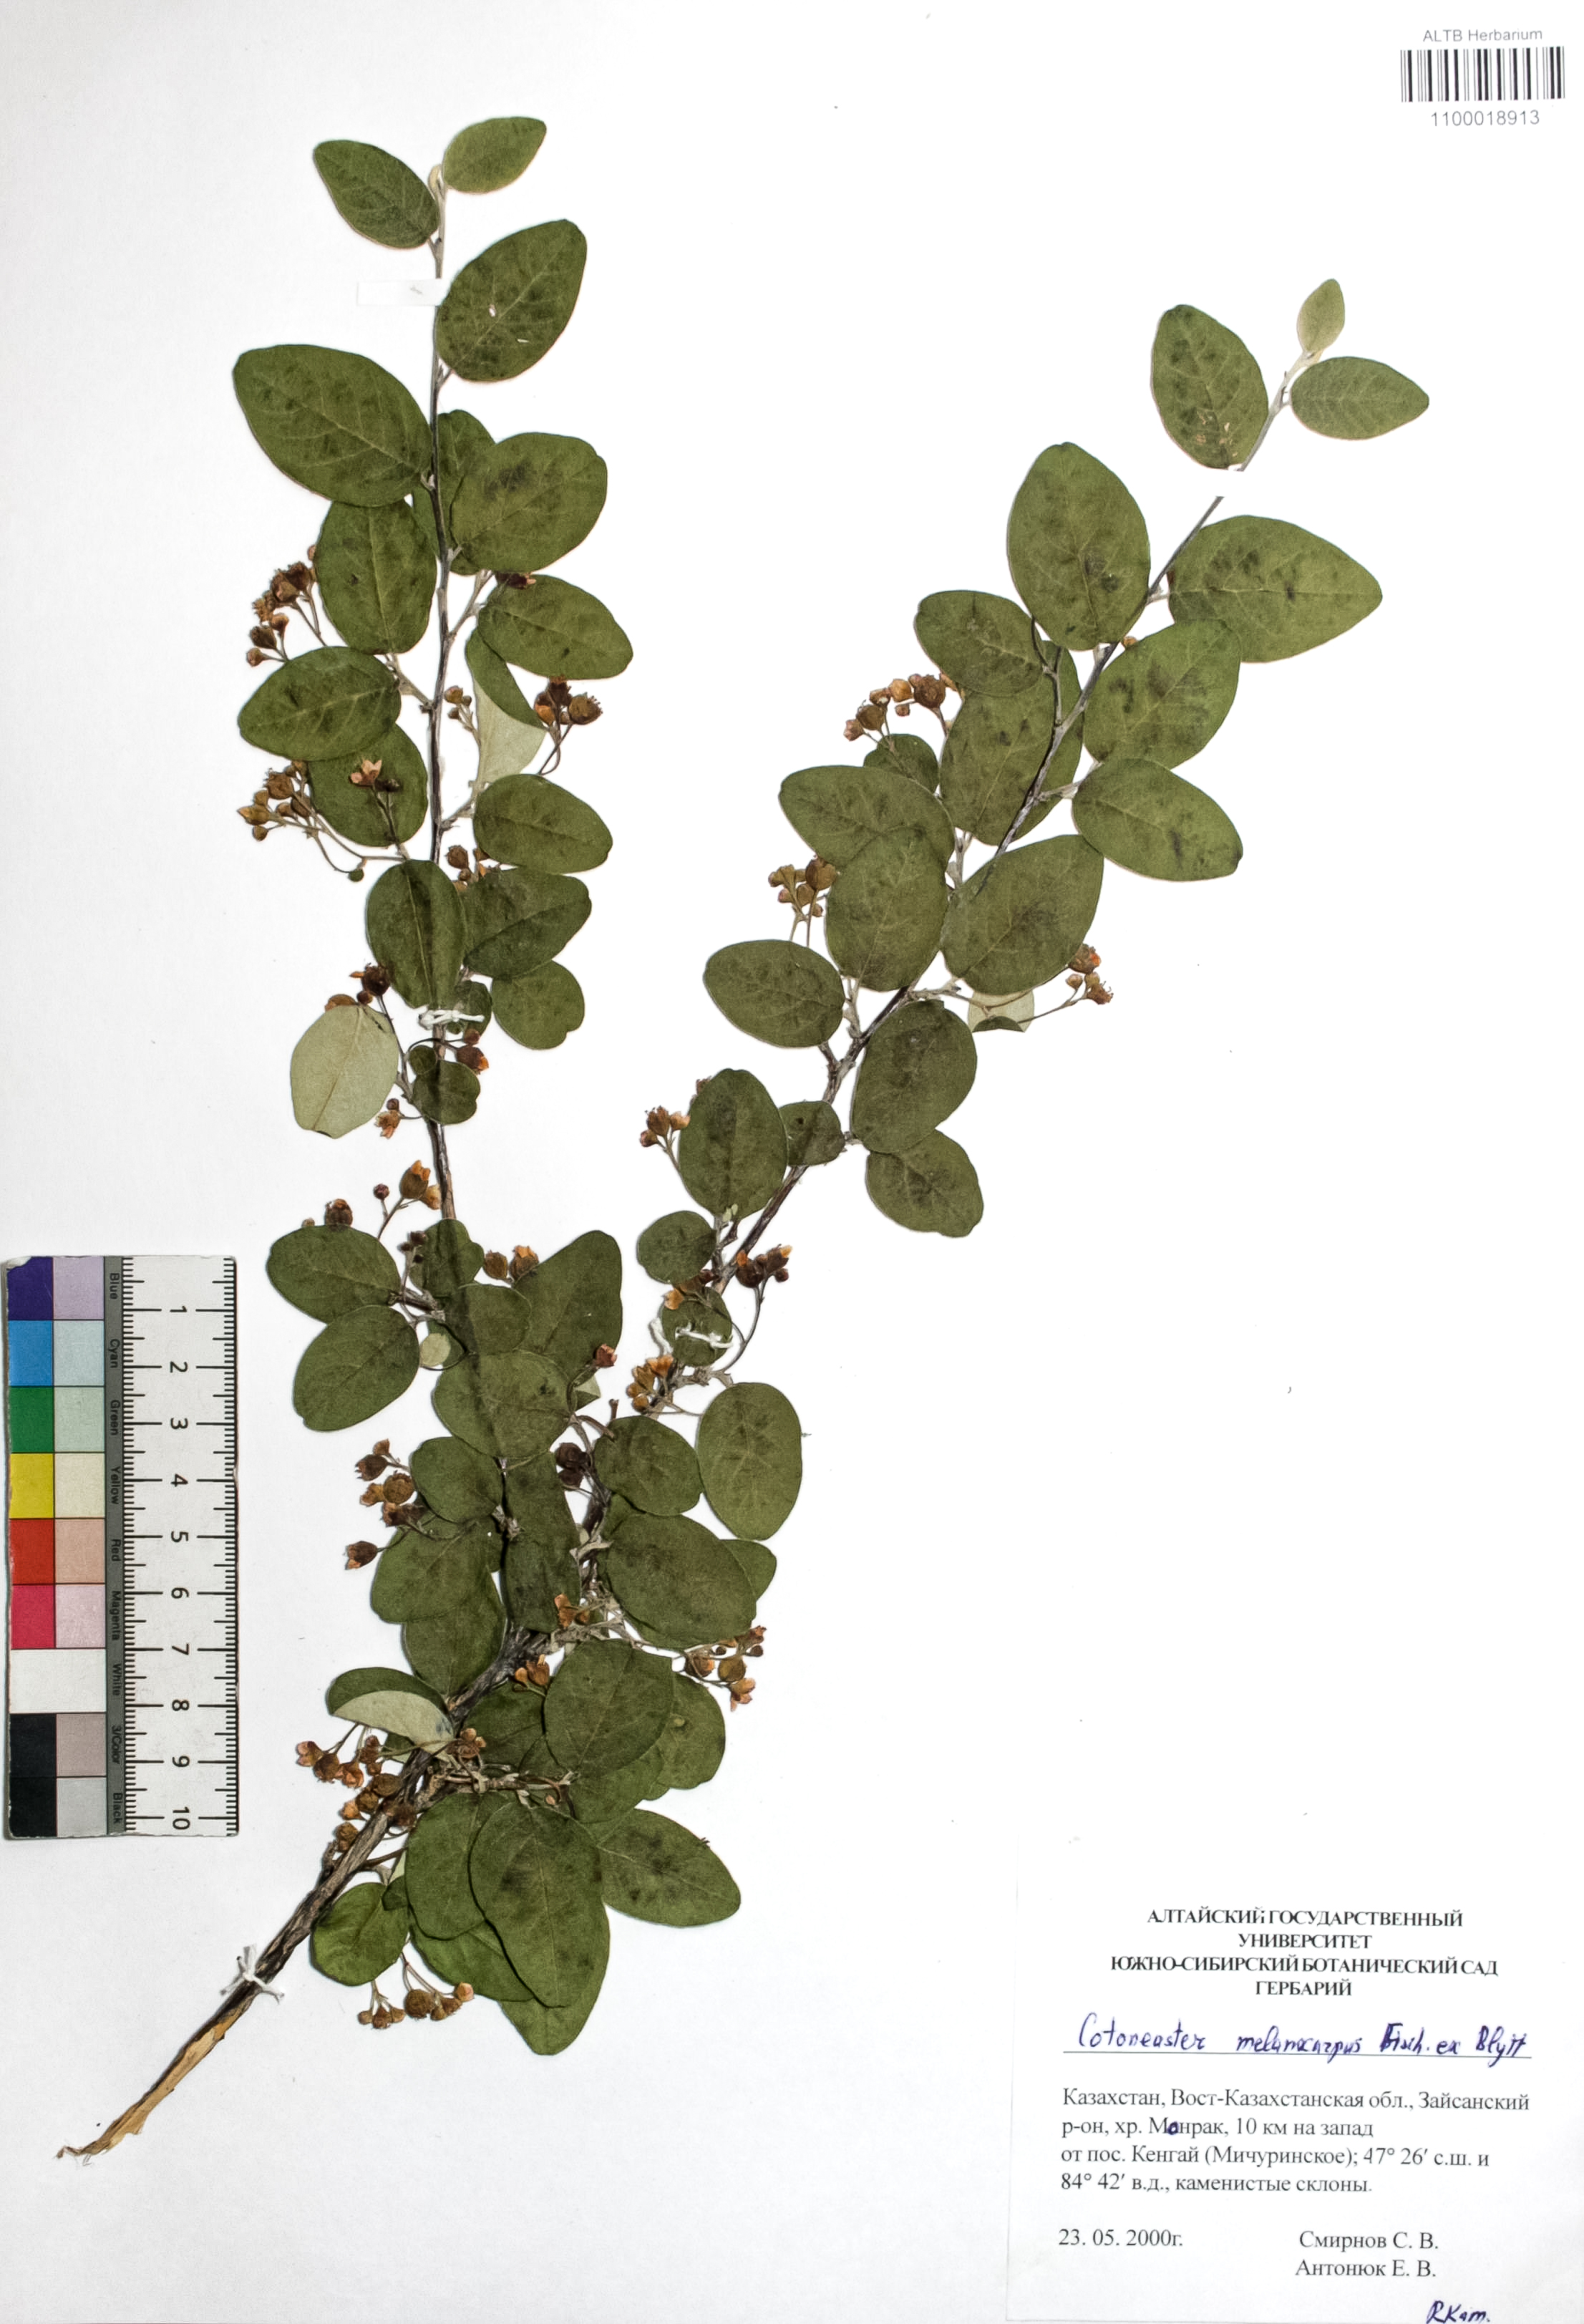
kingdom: Plantae
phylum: Tracheophyta
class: Magnoliopsida
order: Rosales
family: Rosaceae
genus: Cotoneaster
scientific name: Cotoneaster niger
